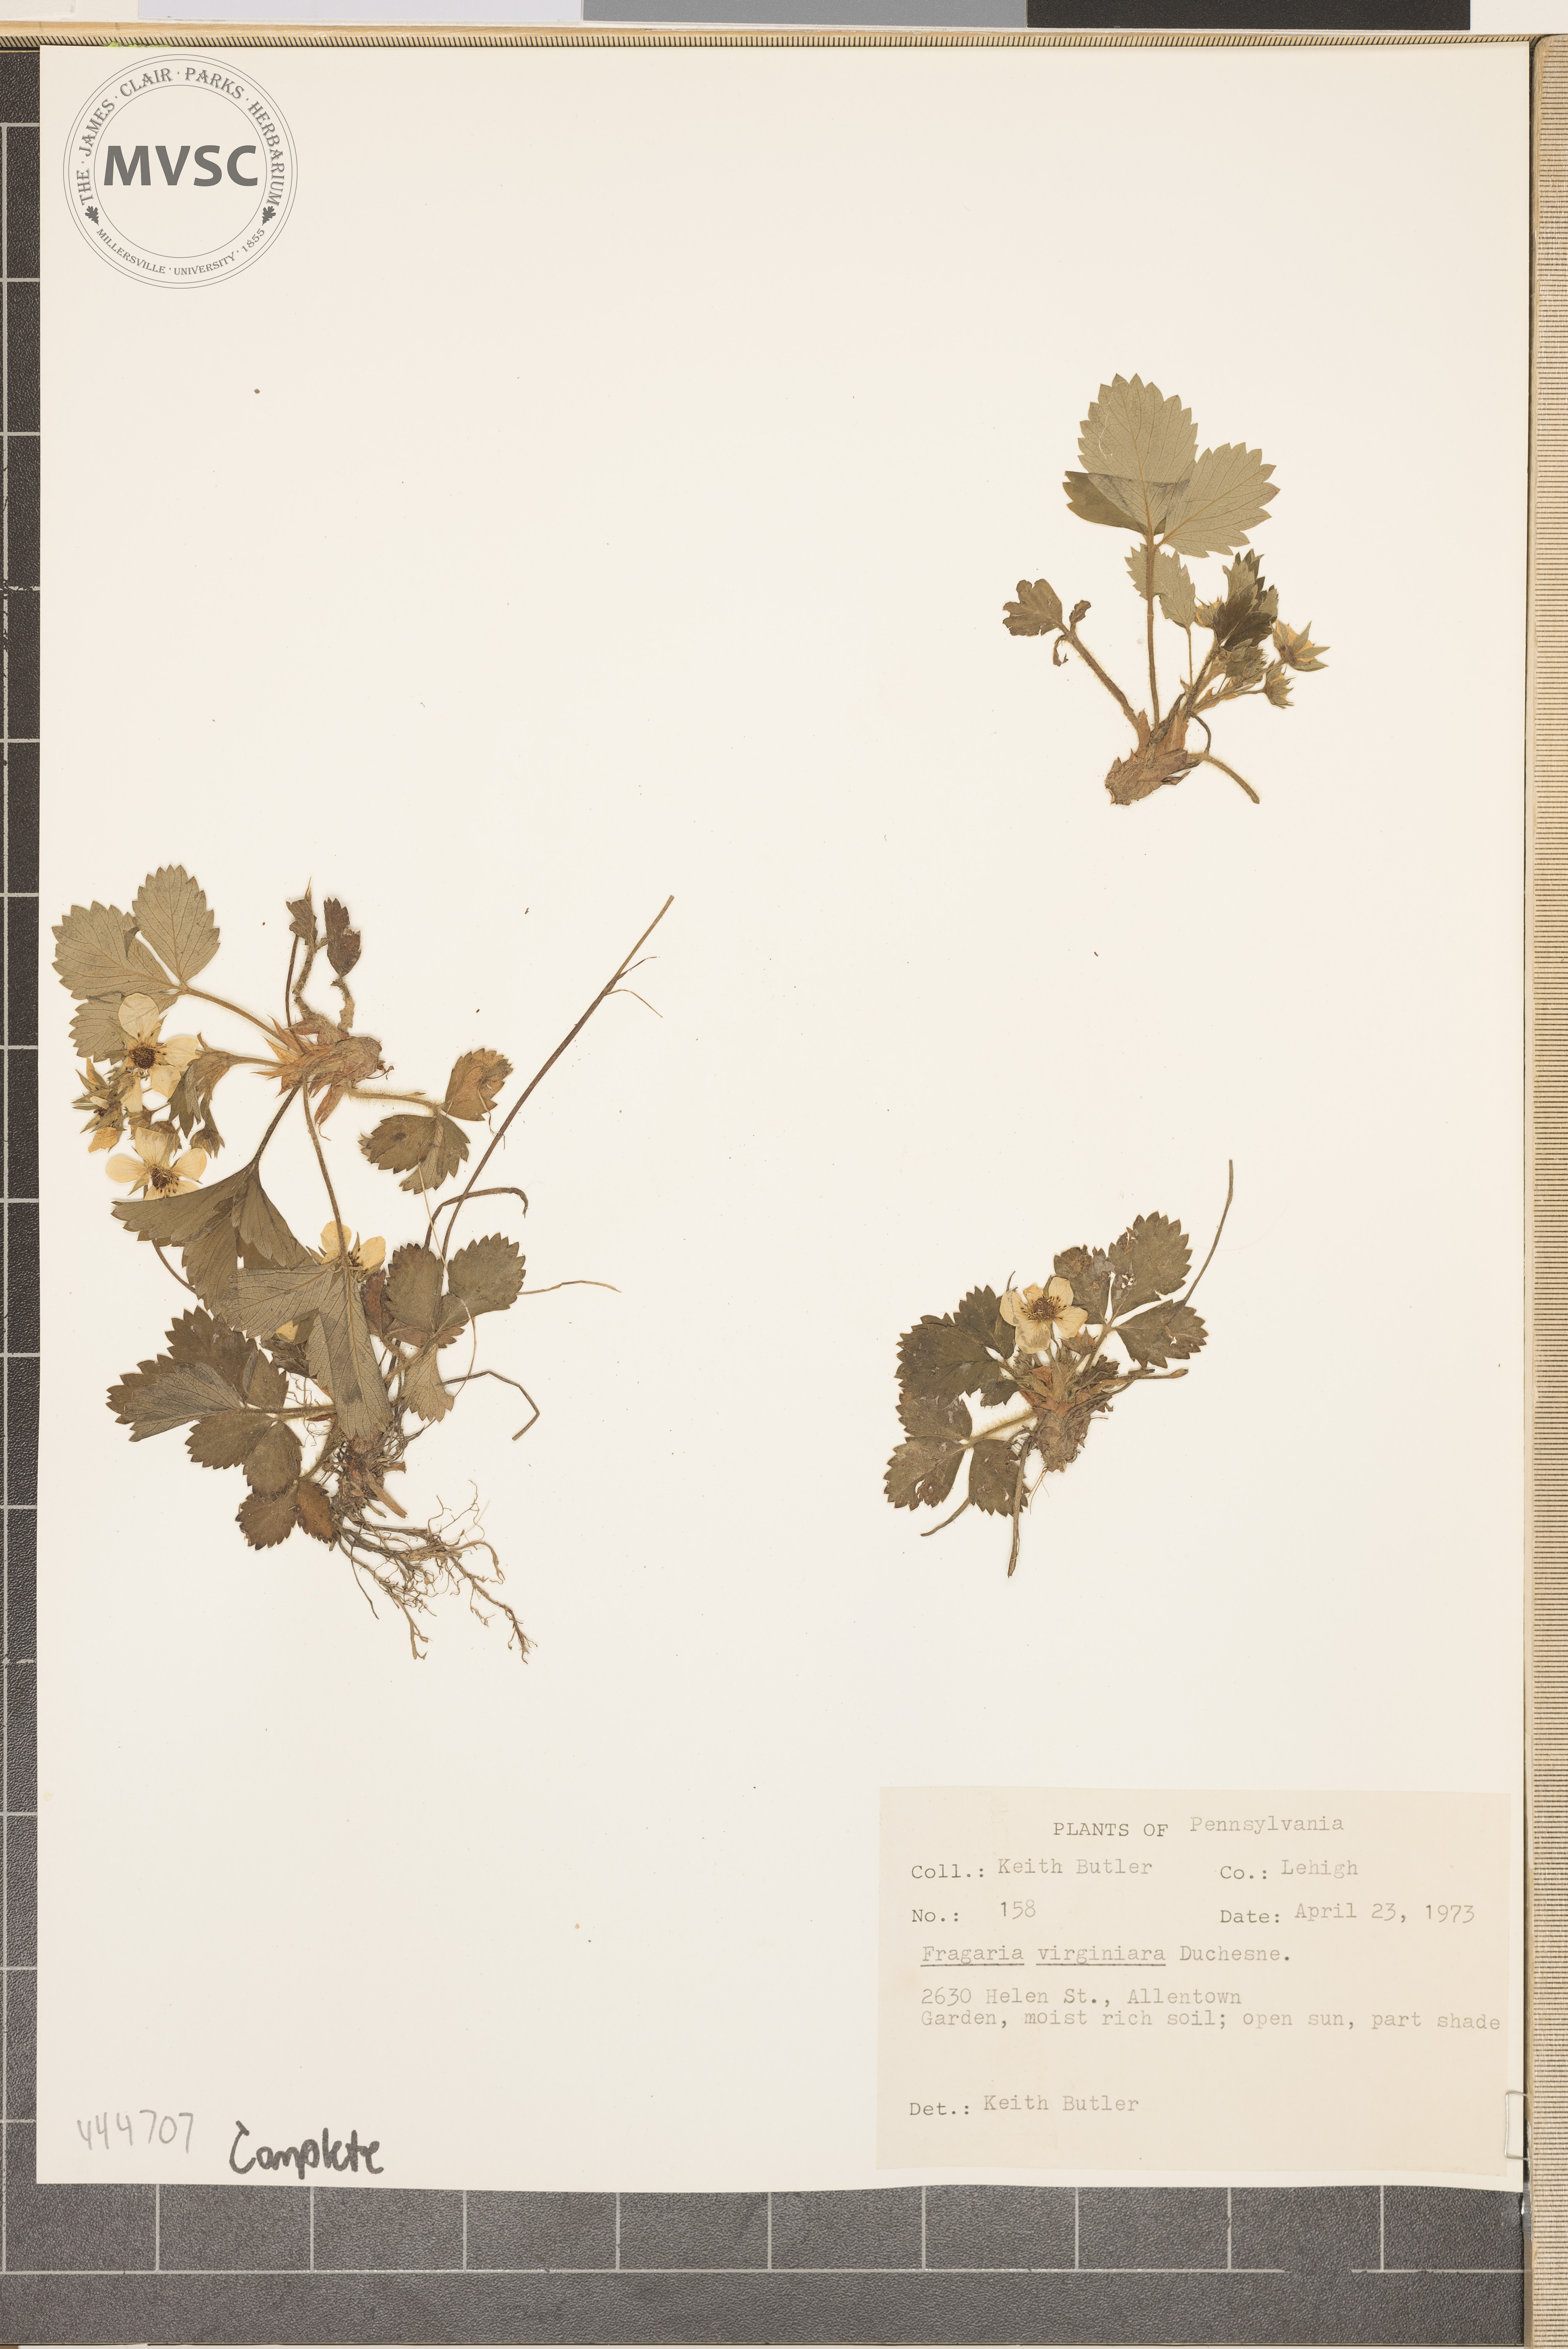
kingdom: Plantae
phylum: Tracheophyta
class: Magnoliopsida
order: Rosales
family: Rosaceae
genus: Fragaria
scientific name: Fragaria virginiana
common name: Thickleaved wild strawberry
